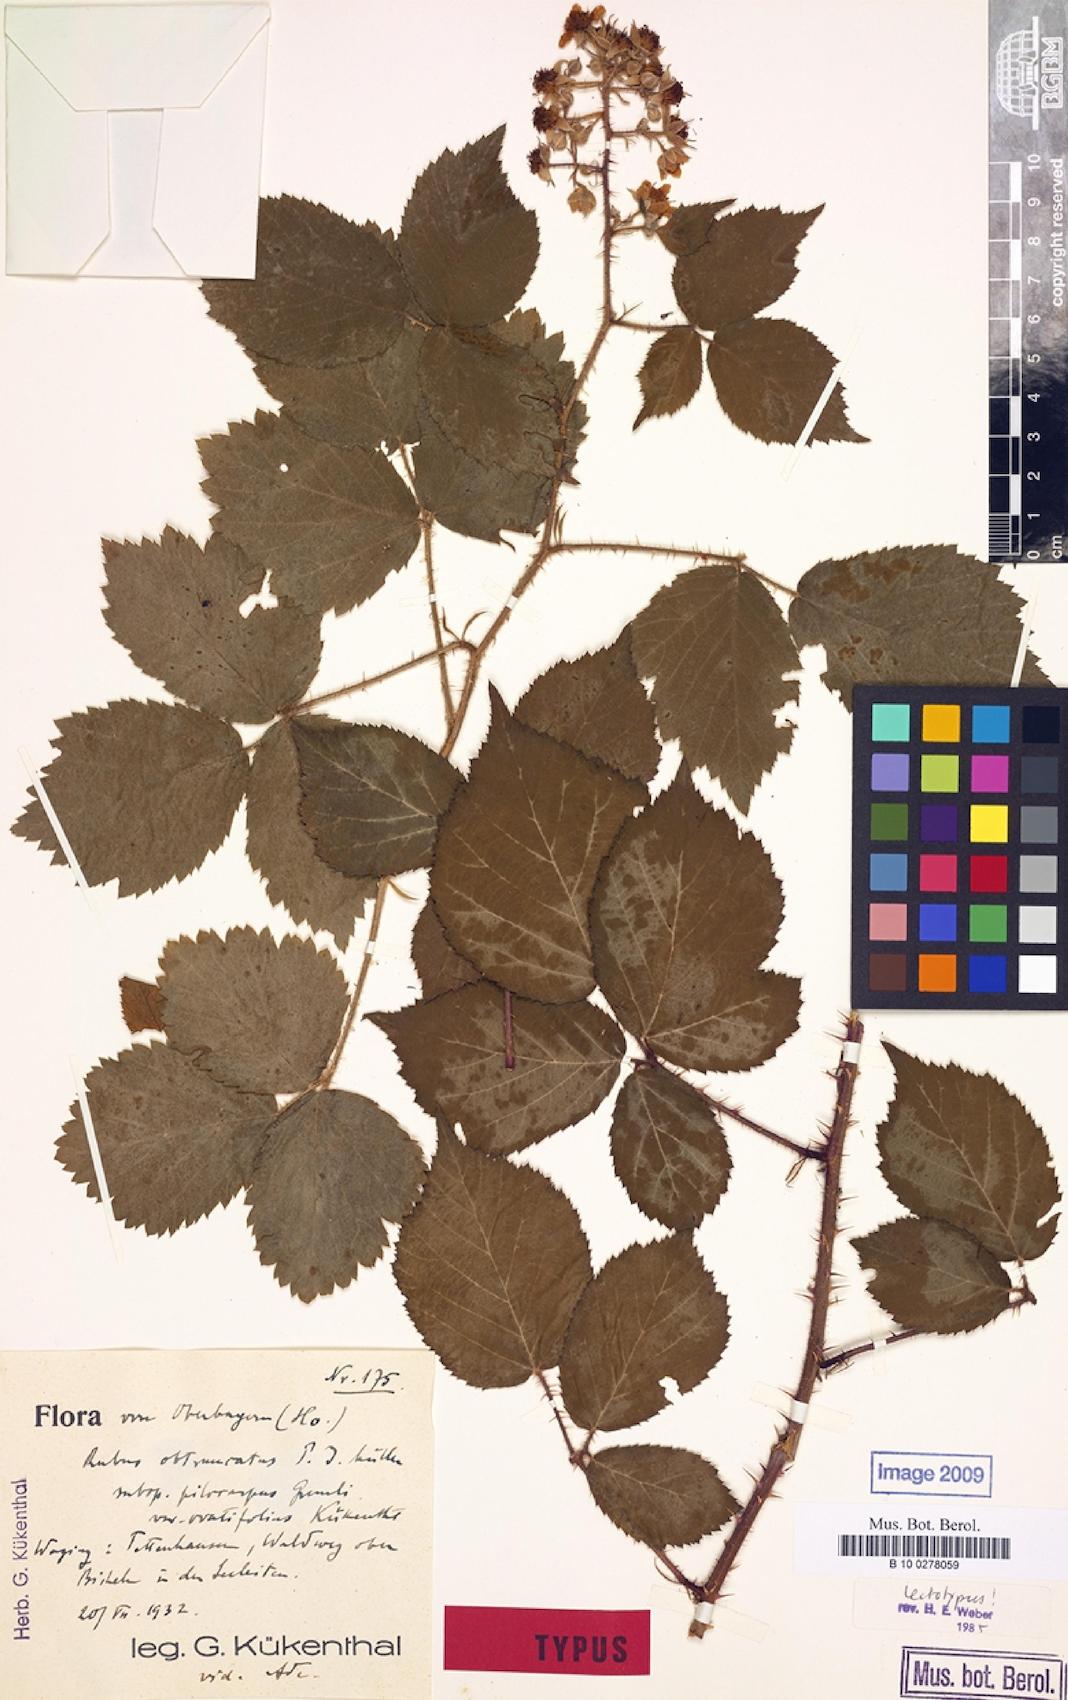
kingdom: Plantae
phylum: Tracheophyta
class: Magnoliopsida
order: Rosales
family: Rosaceae
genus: Rubus
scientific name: Rubus obtruncatus
